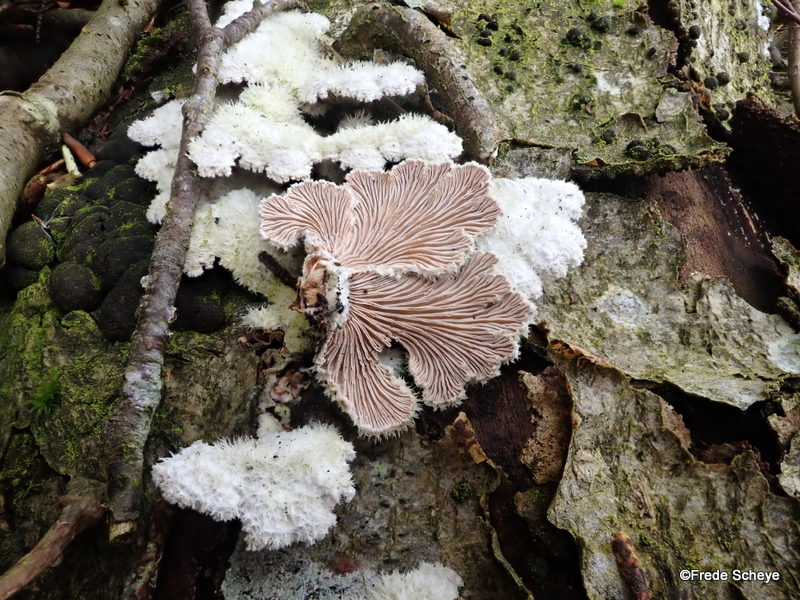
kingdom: Fungi
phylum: Basidiomycota
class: Agaricomycetes
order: Agaricales
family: Schizophyllaceae
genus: Schizophyllum
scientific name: Schizophyllum commune
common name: kløvblad
